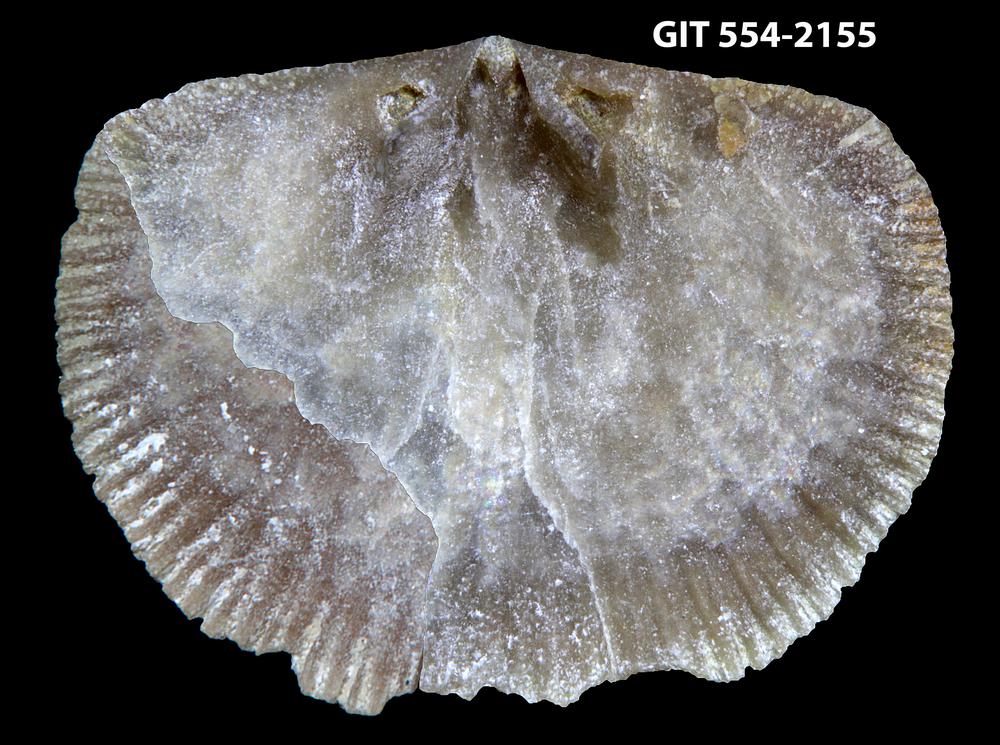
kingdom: Animalia
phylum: Brachiopoda
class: Rhynchonellata
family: Schizophoriidae
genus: Salopina
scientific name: Salopina Dalmanella submedia
